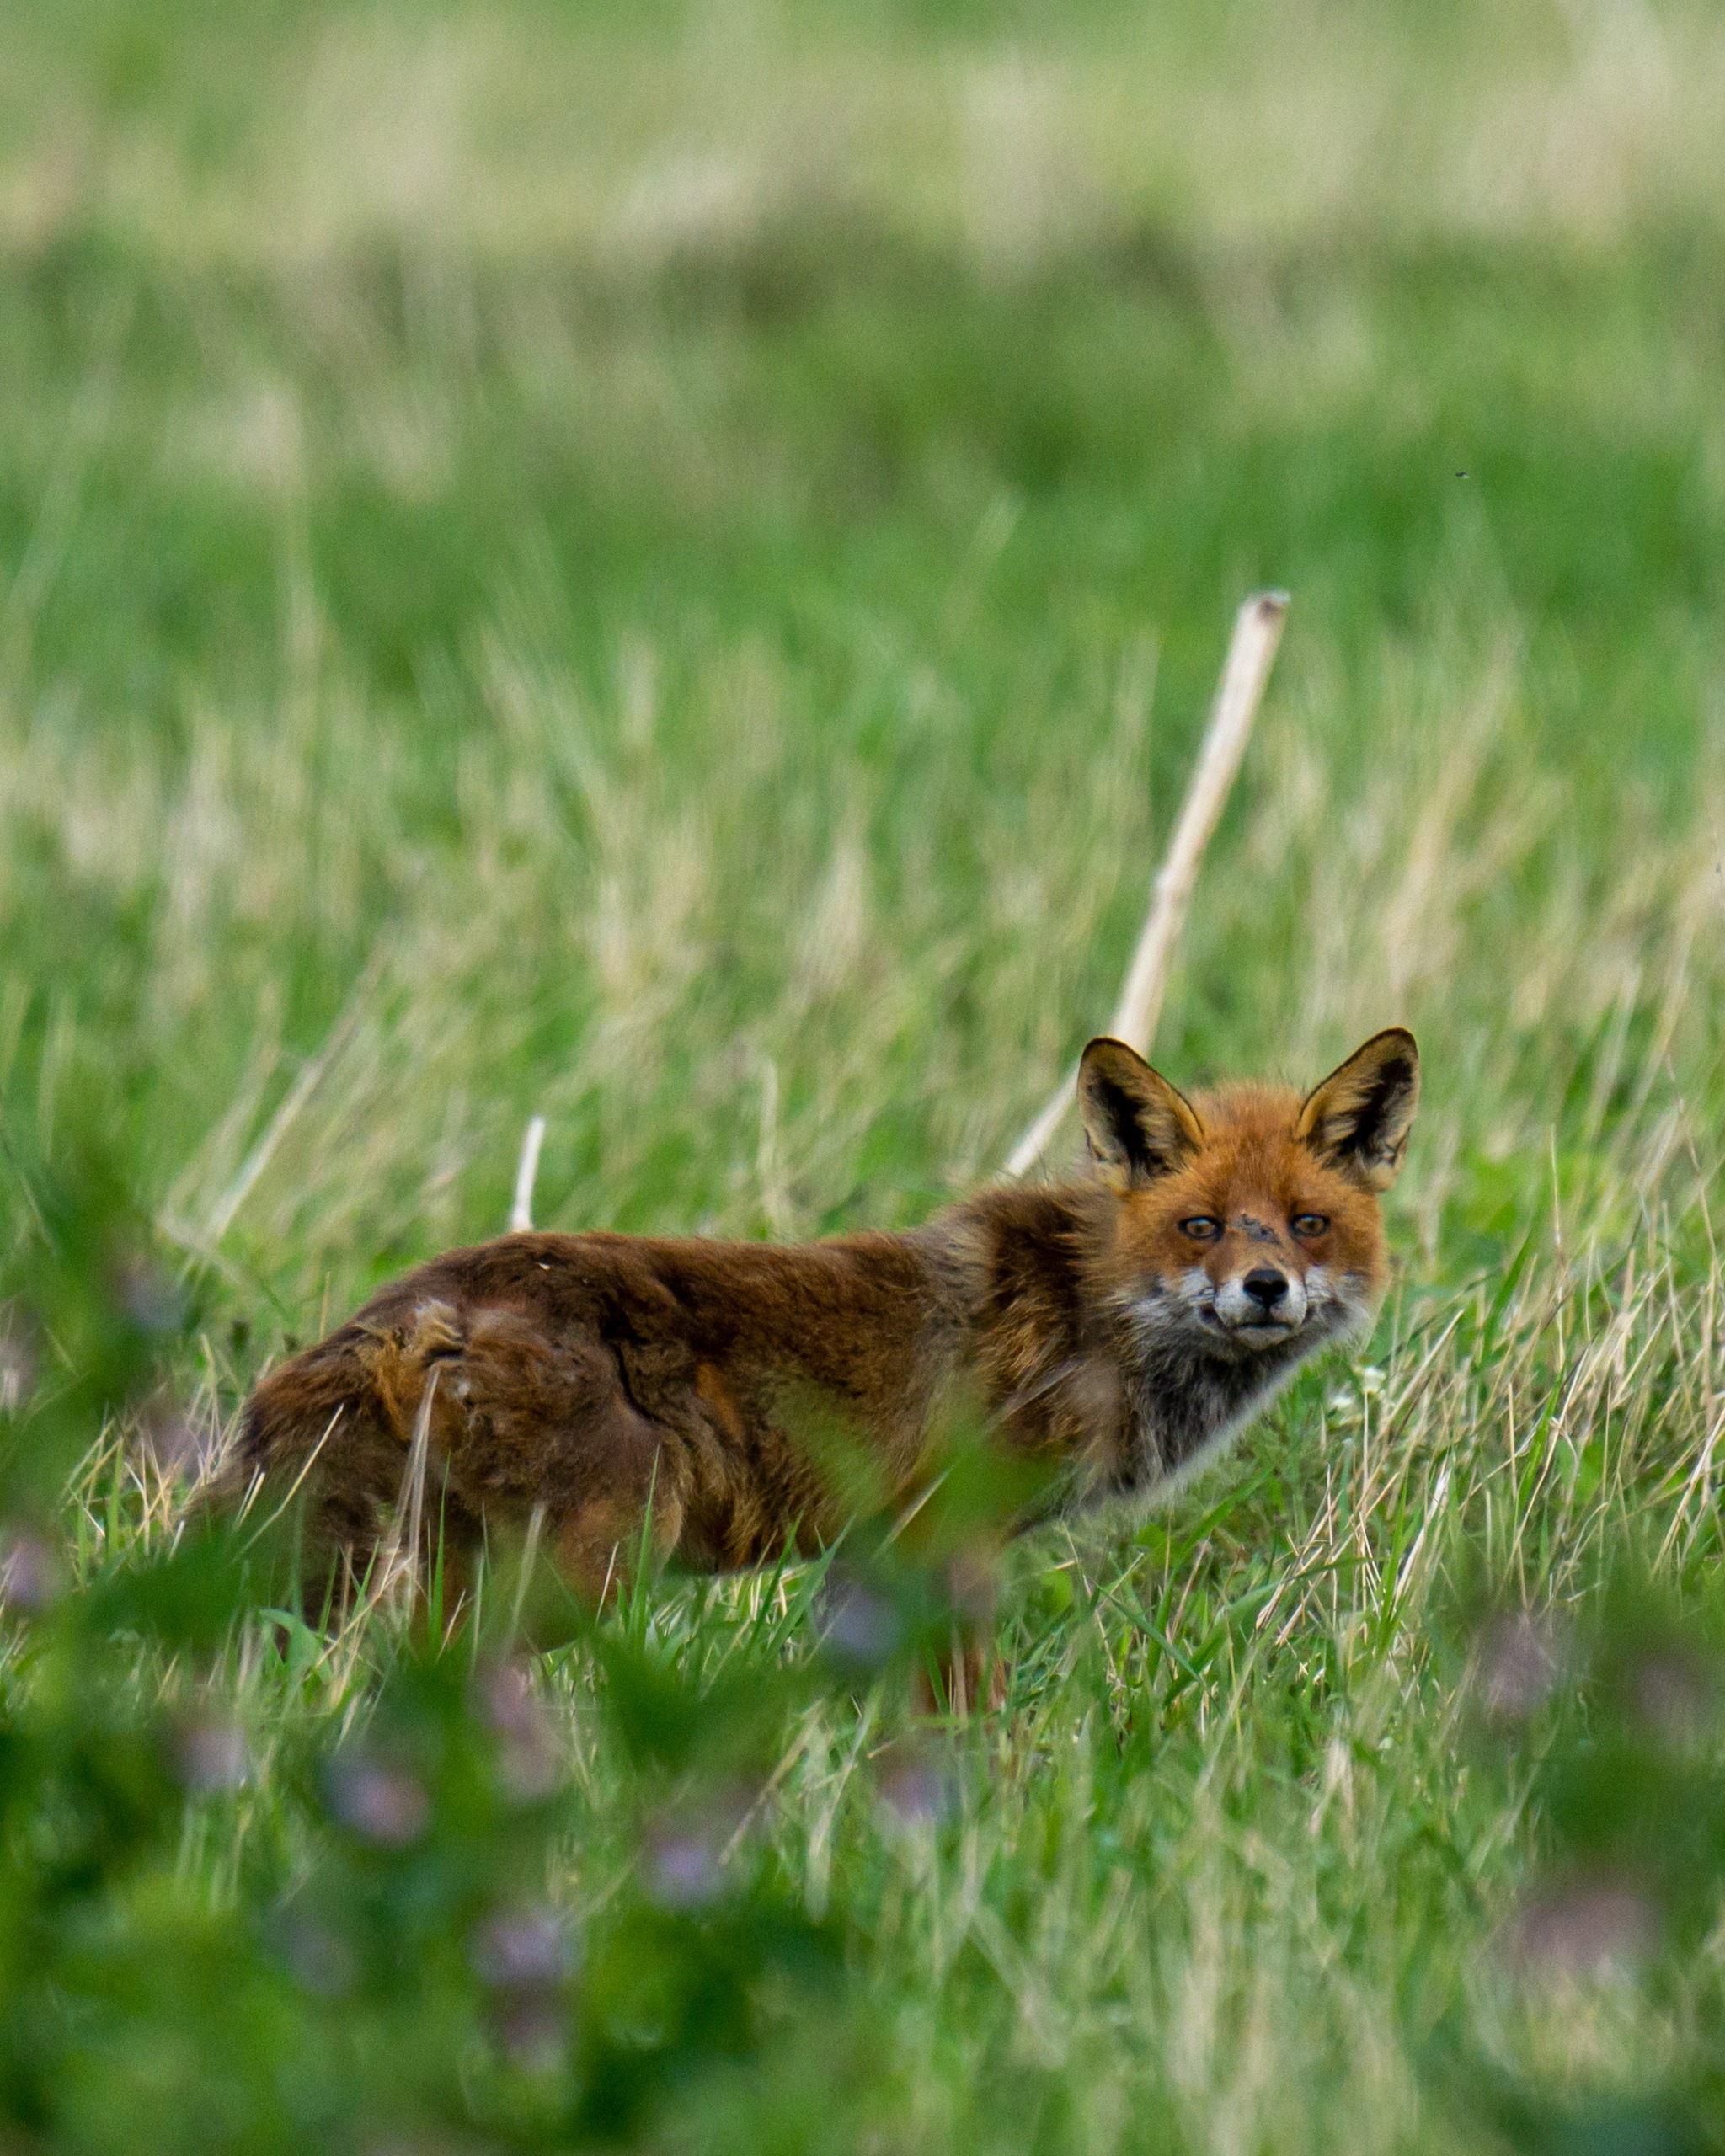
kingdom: Animalia
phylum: Chordata
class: Mammalia
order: Carnivora
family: Canidae
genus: Vulpes
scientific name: Vulpes vulpes
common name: Ræv
